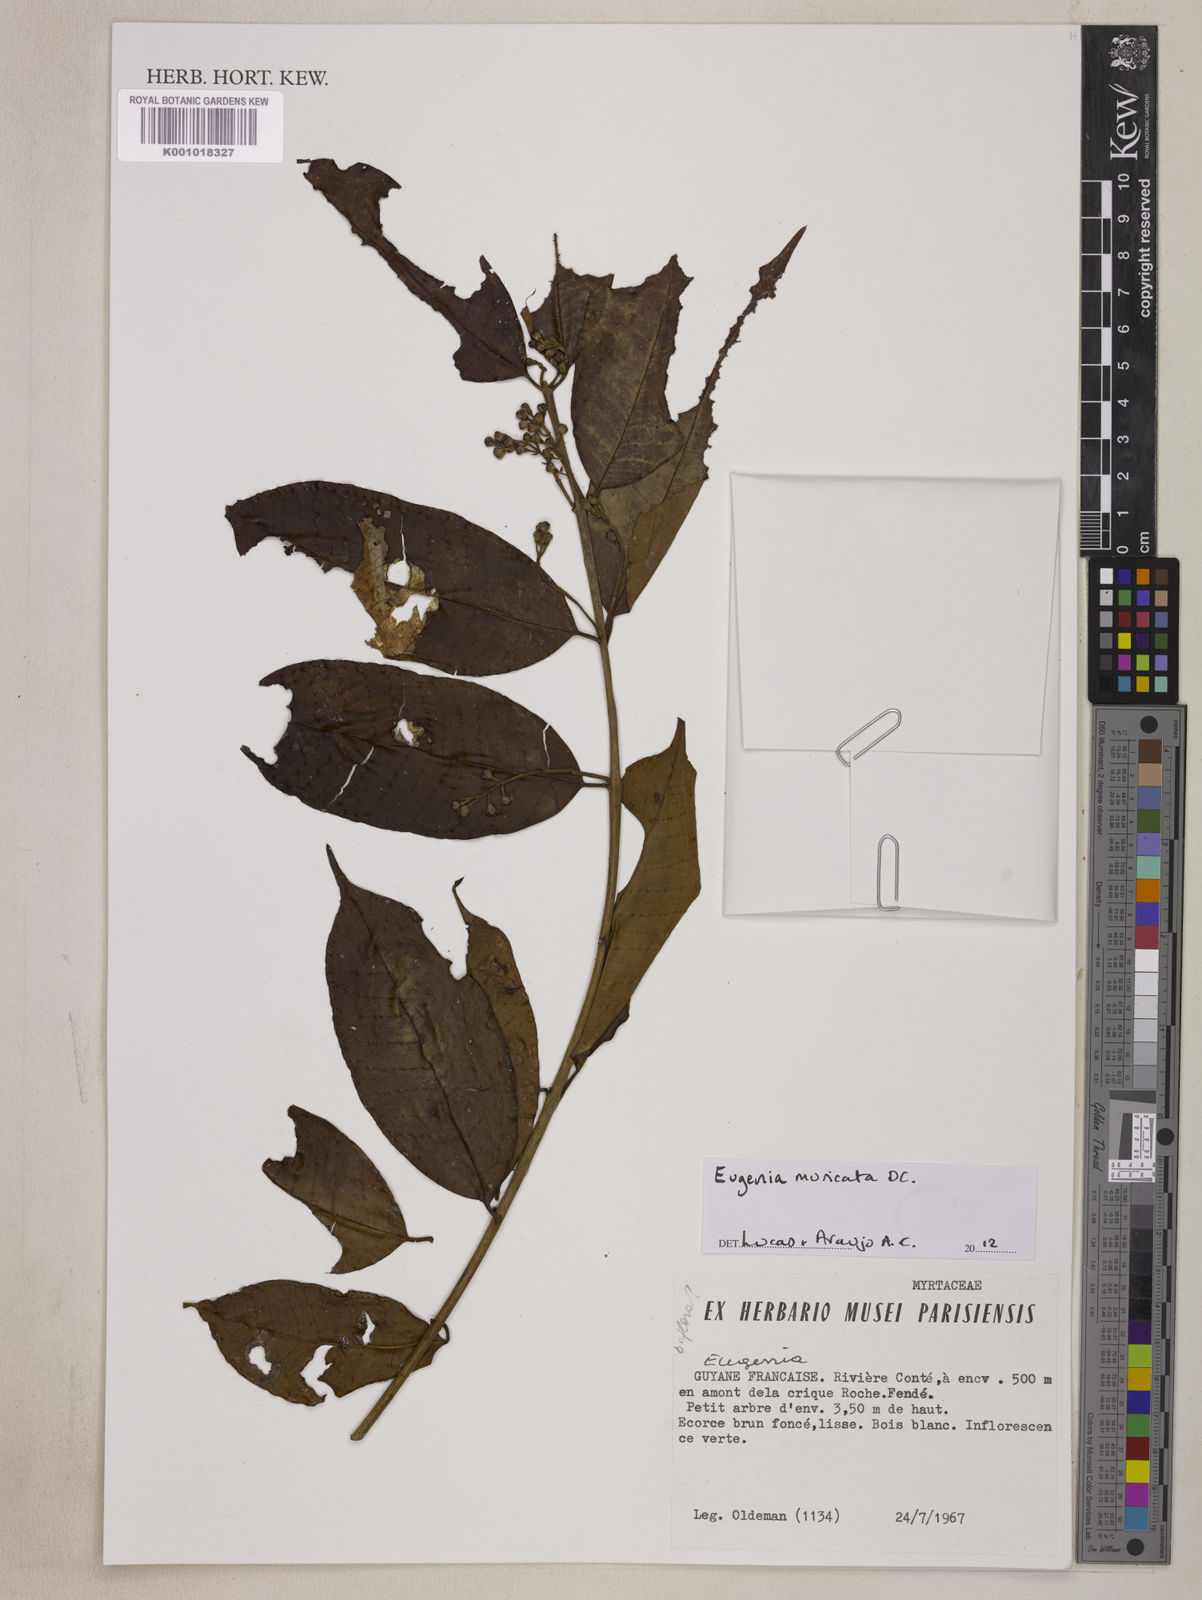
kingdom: Plantae
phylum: Tracheophyta
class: Magnoliopsida
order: Myrtales
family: Myrtaceae
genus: Eugenia
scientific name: Eugenia muricata
